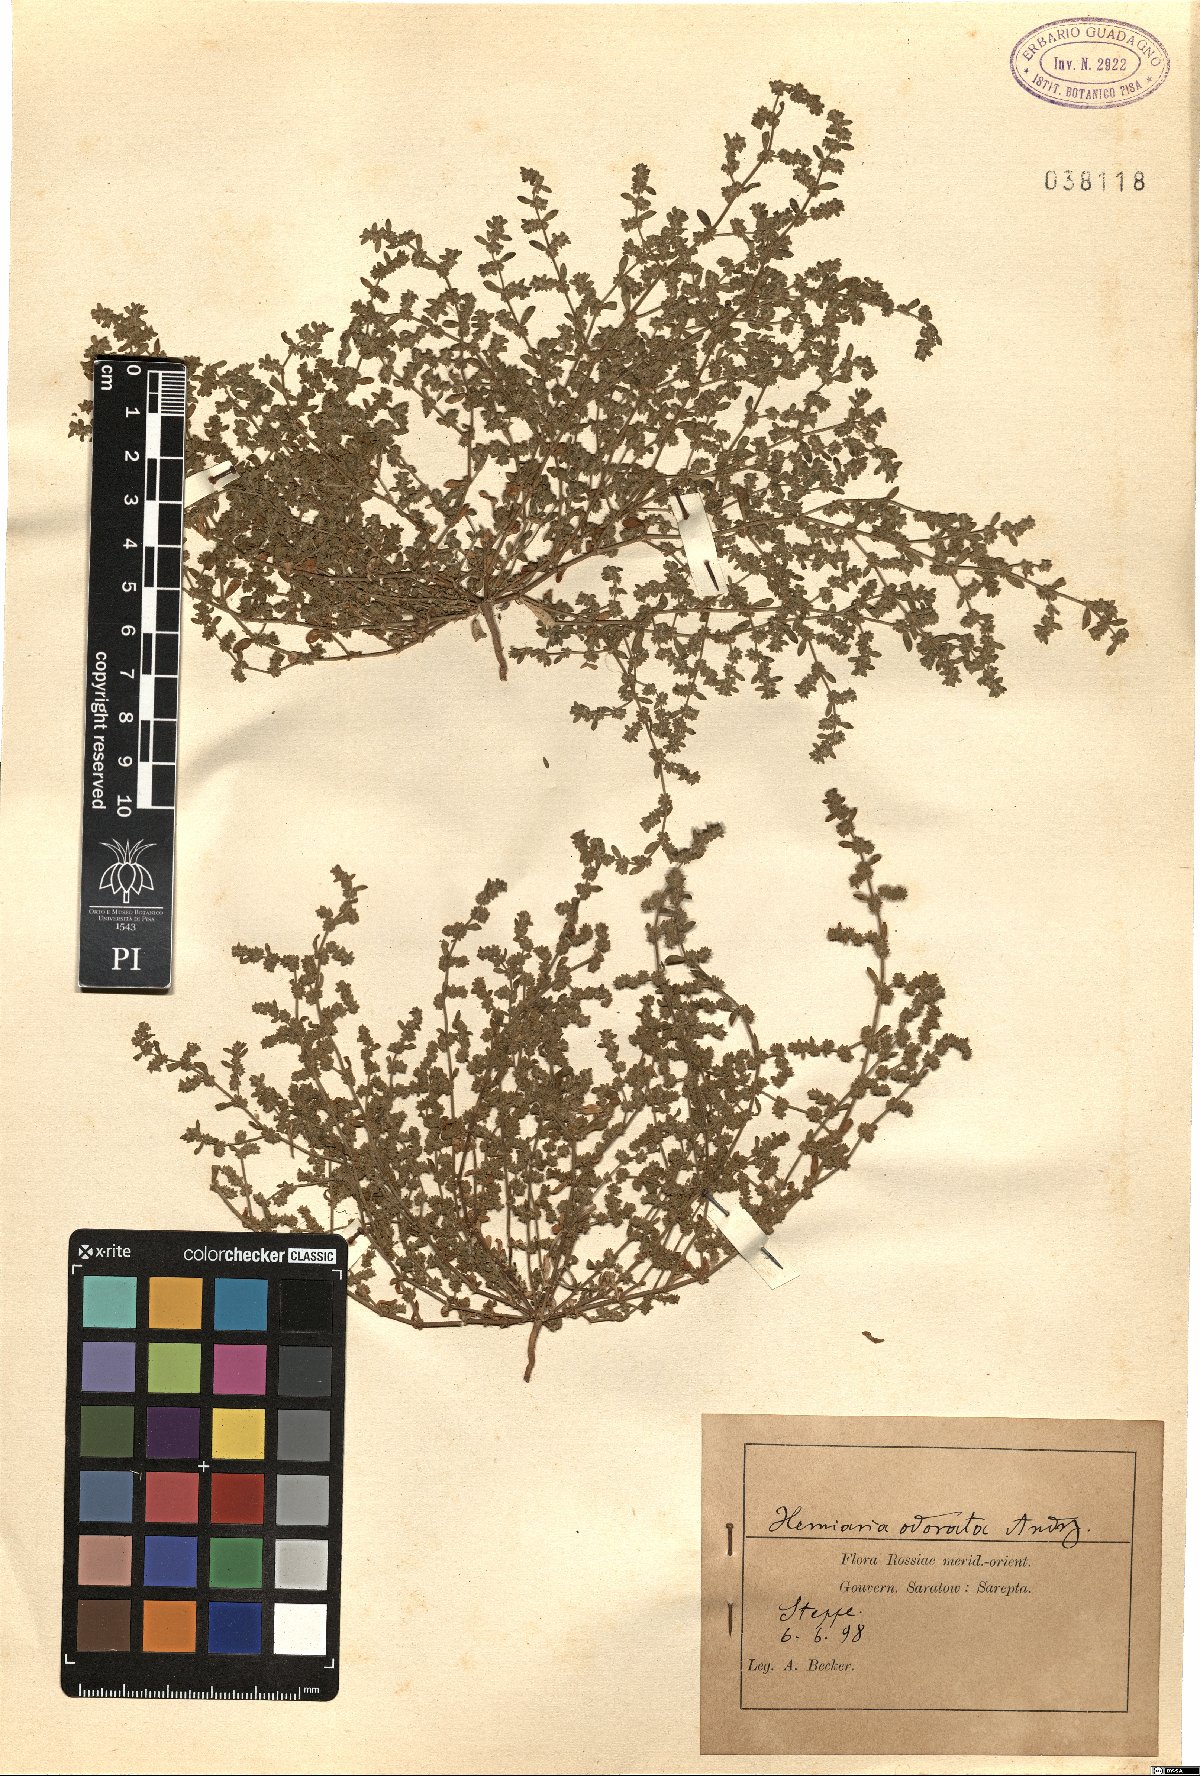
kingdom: Plantae
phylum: Tracheophyta
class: Magnoliopsida
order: Caryophyllales
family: Caryophyllaceae
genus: Herniaria
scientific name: Herniaria polygama
